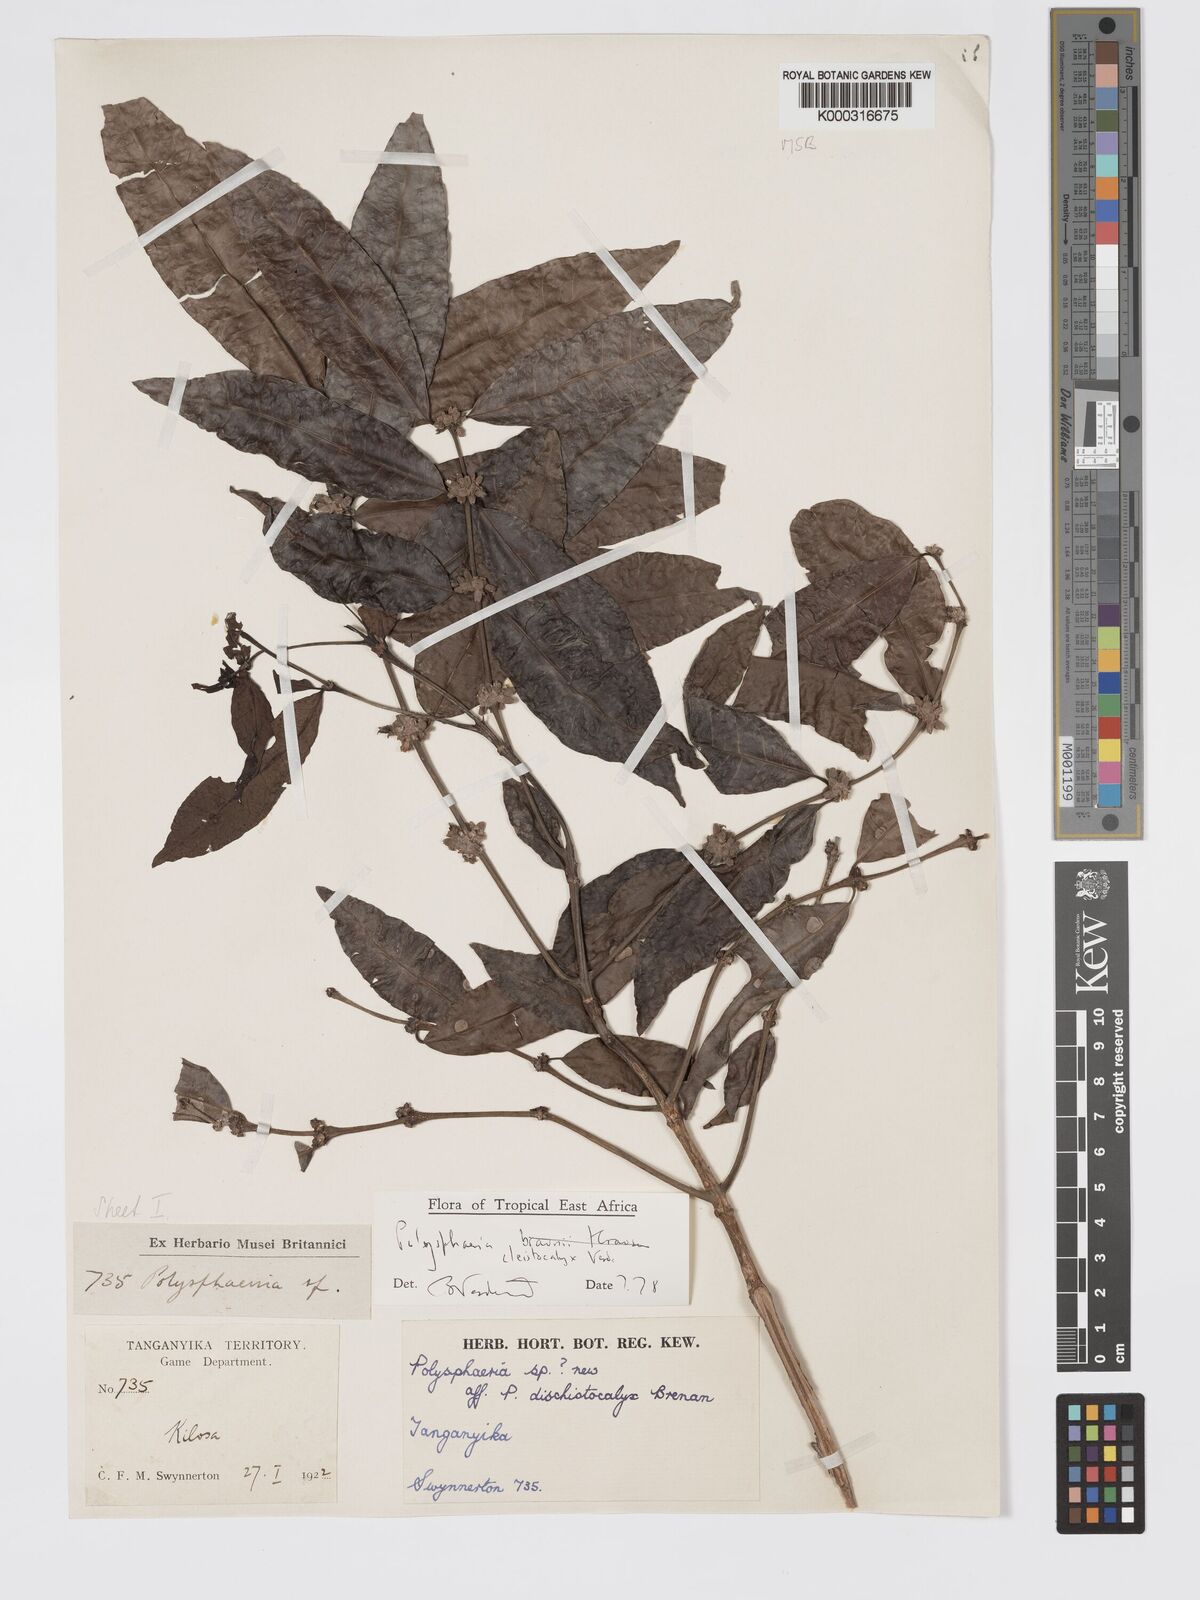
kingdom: Plantae
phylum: Tracheophyta
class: Magnoliopsida
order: Gentianales
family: Rubiaceae
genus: Polysphaeria
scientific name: Polysphaeria cleistocalyx
